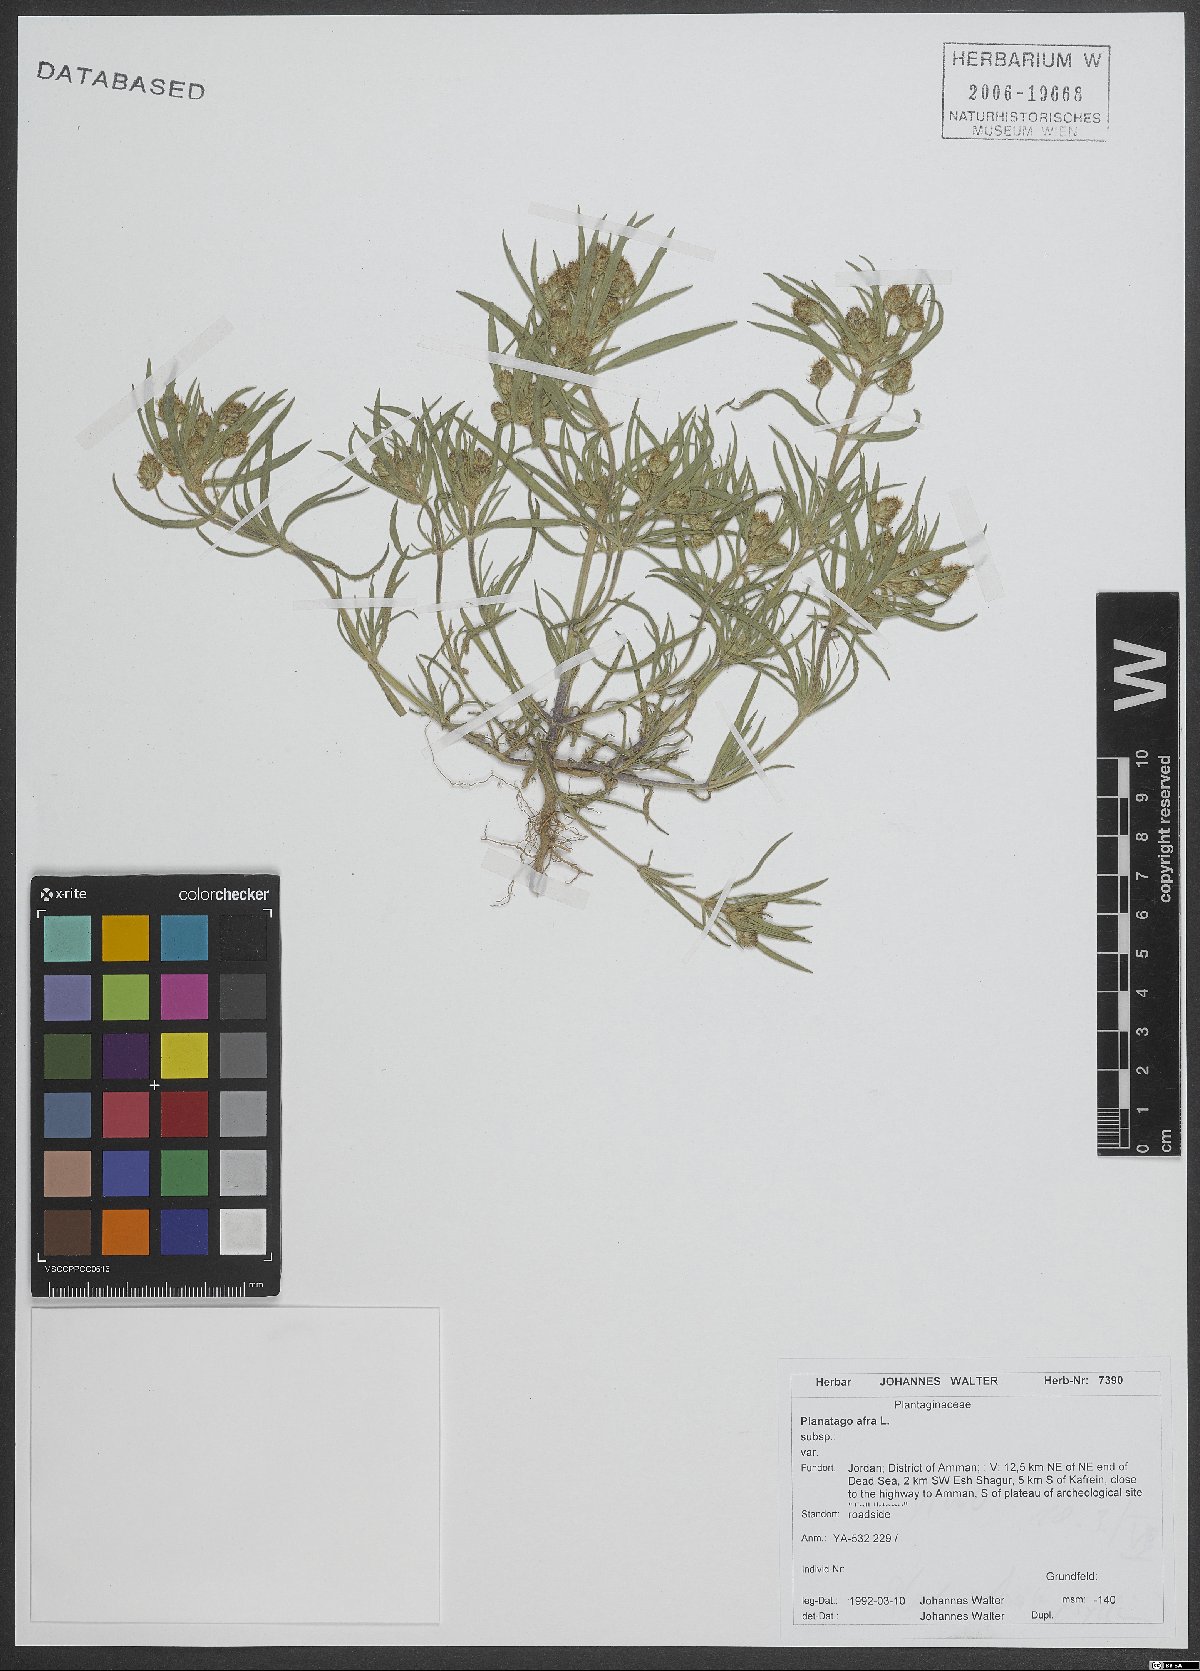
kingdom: Plantae
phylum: Tracheophyta
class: Magnoliopsida
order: Lamiales
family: Plantaginaceae
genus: Plantago
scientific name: Plantago afra
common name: Glandular plantain
